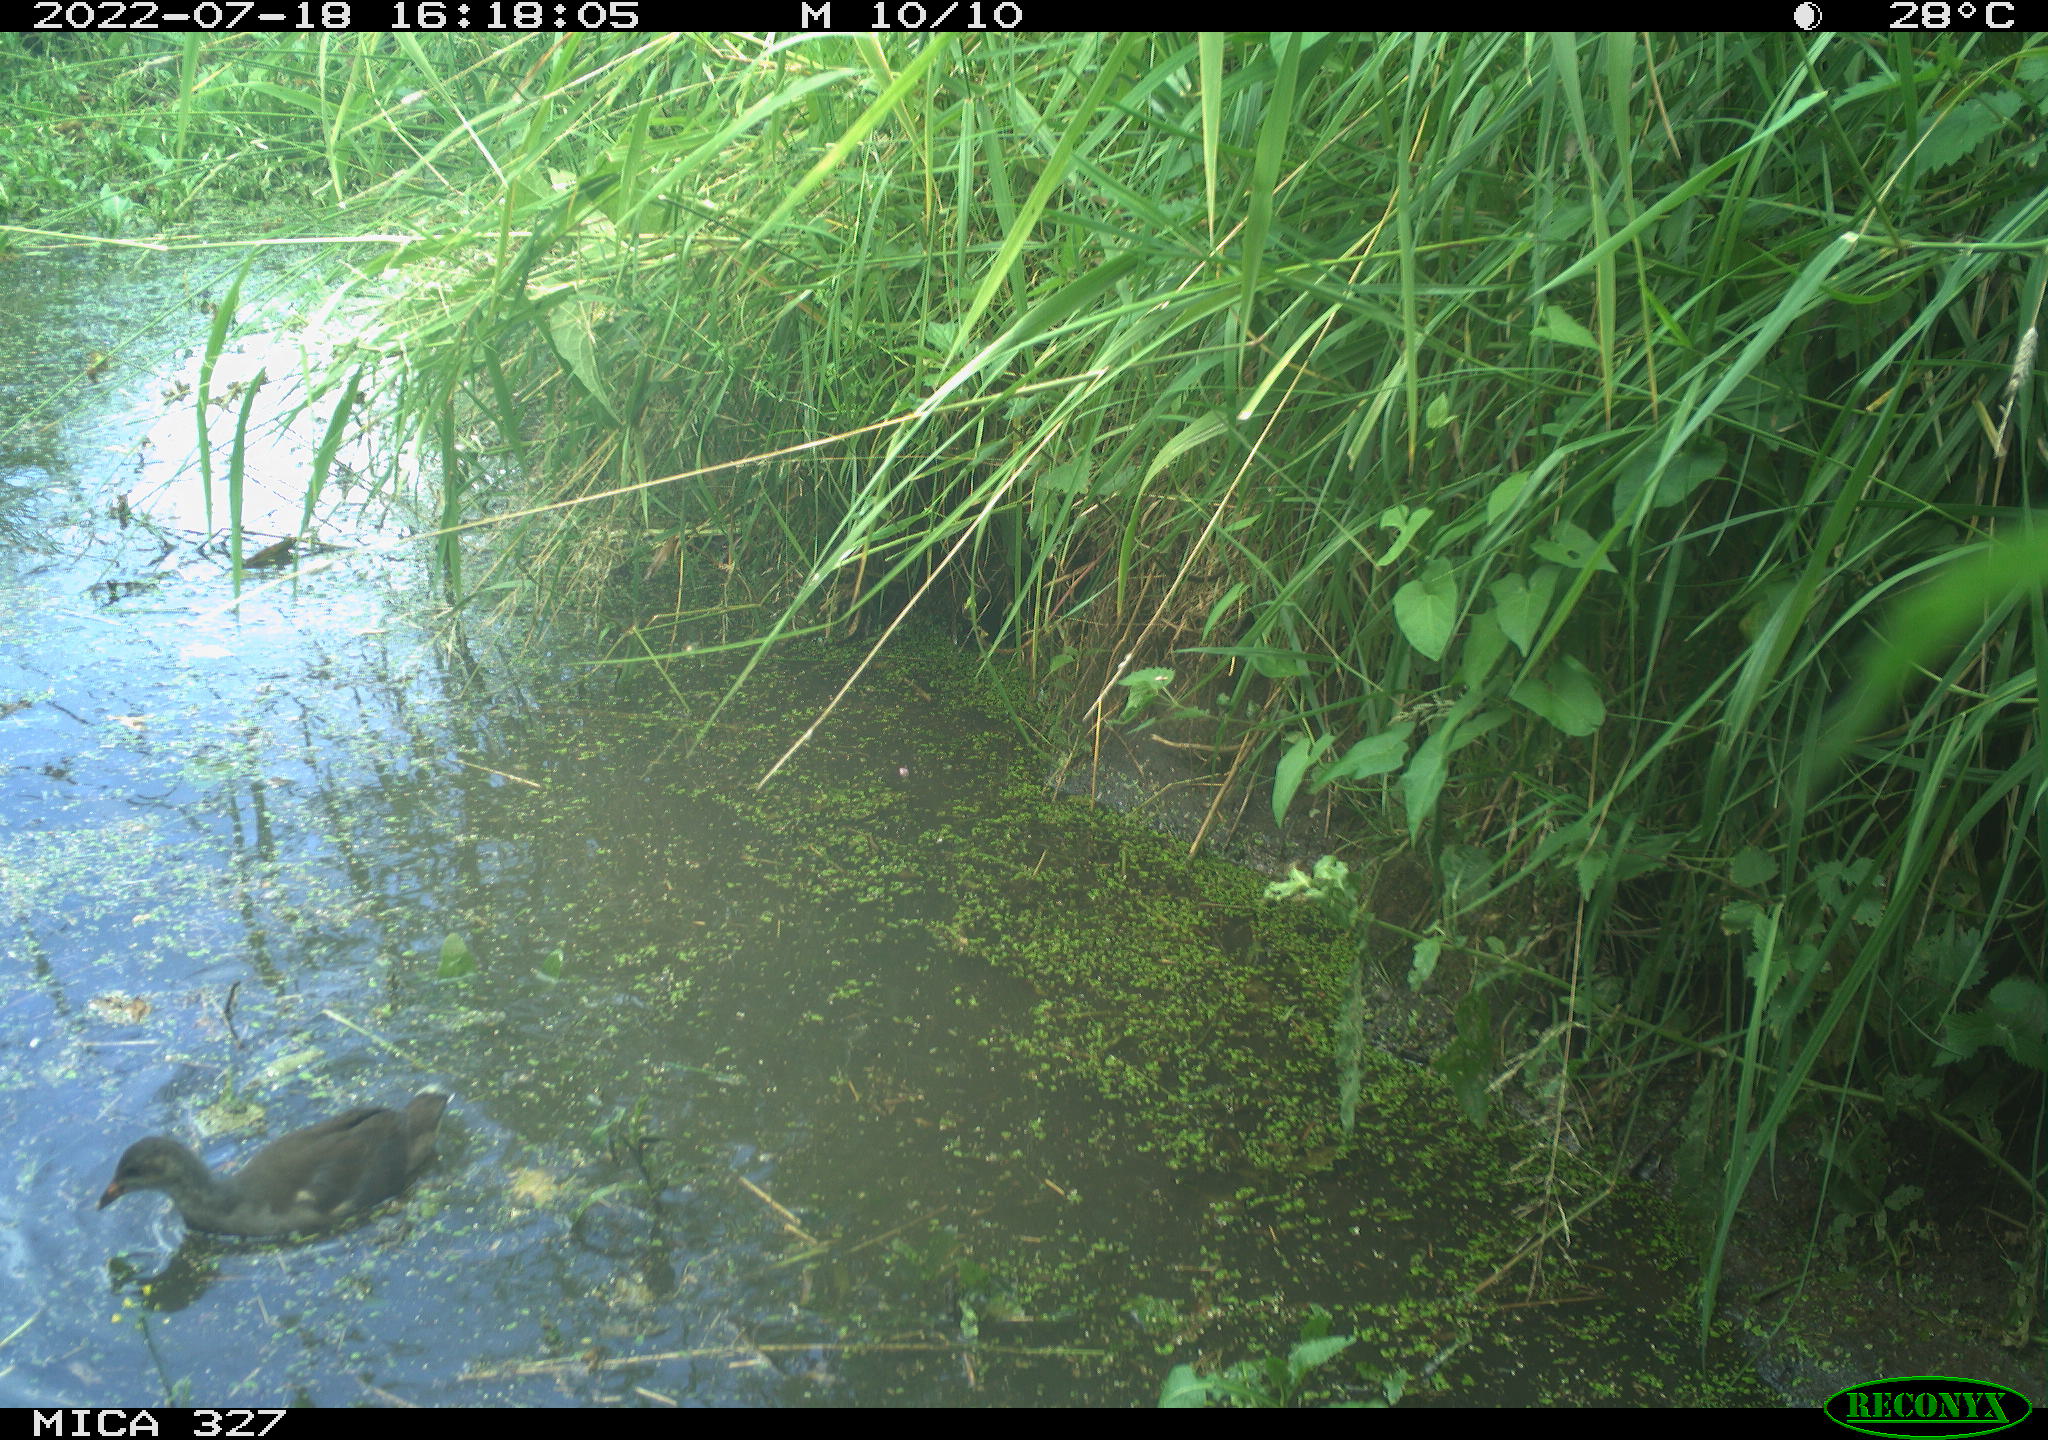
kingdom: Animalia
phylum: Chordata
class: Aves
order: Gruiformes
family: Rallidae
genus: Gallinula
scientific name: Gallinula chloropus
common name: Common moorhen
